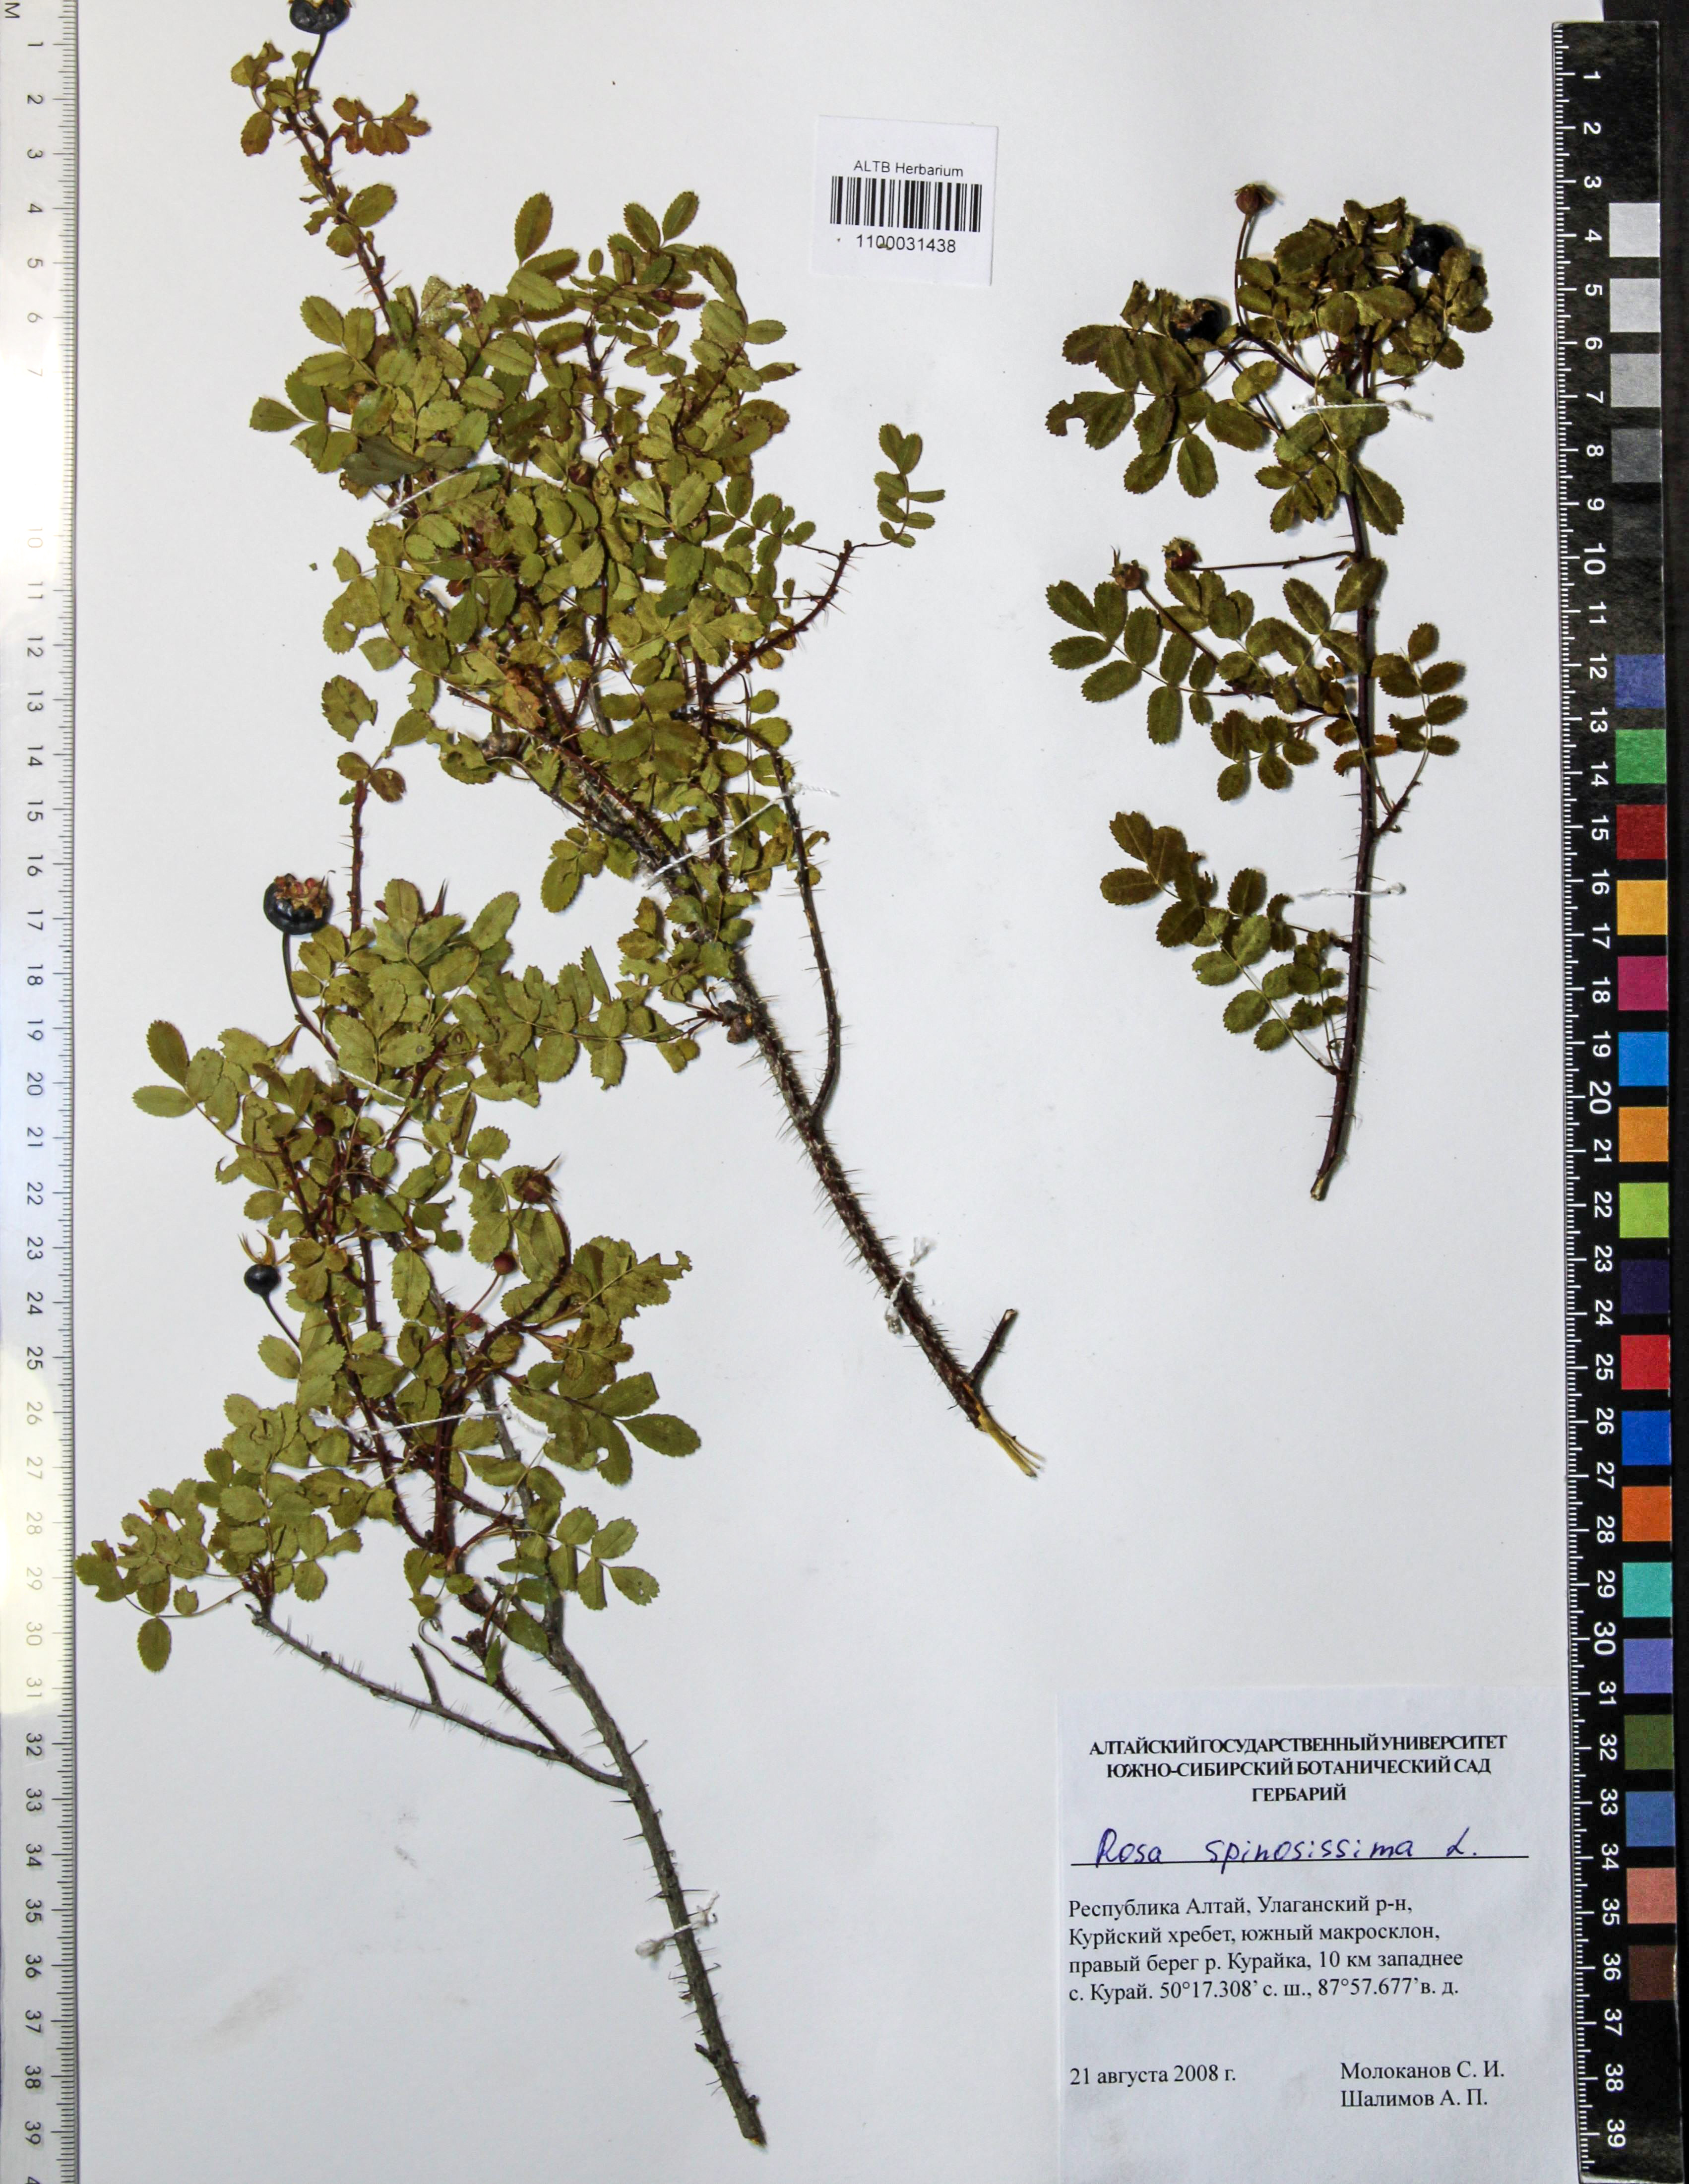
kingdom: Plantae
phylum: Tracheophyta
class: Magnoliopsida
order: Rosales
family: Rosaceae
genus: Rosa
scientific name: Rosa spinosissima
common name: Burnet rose
